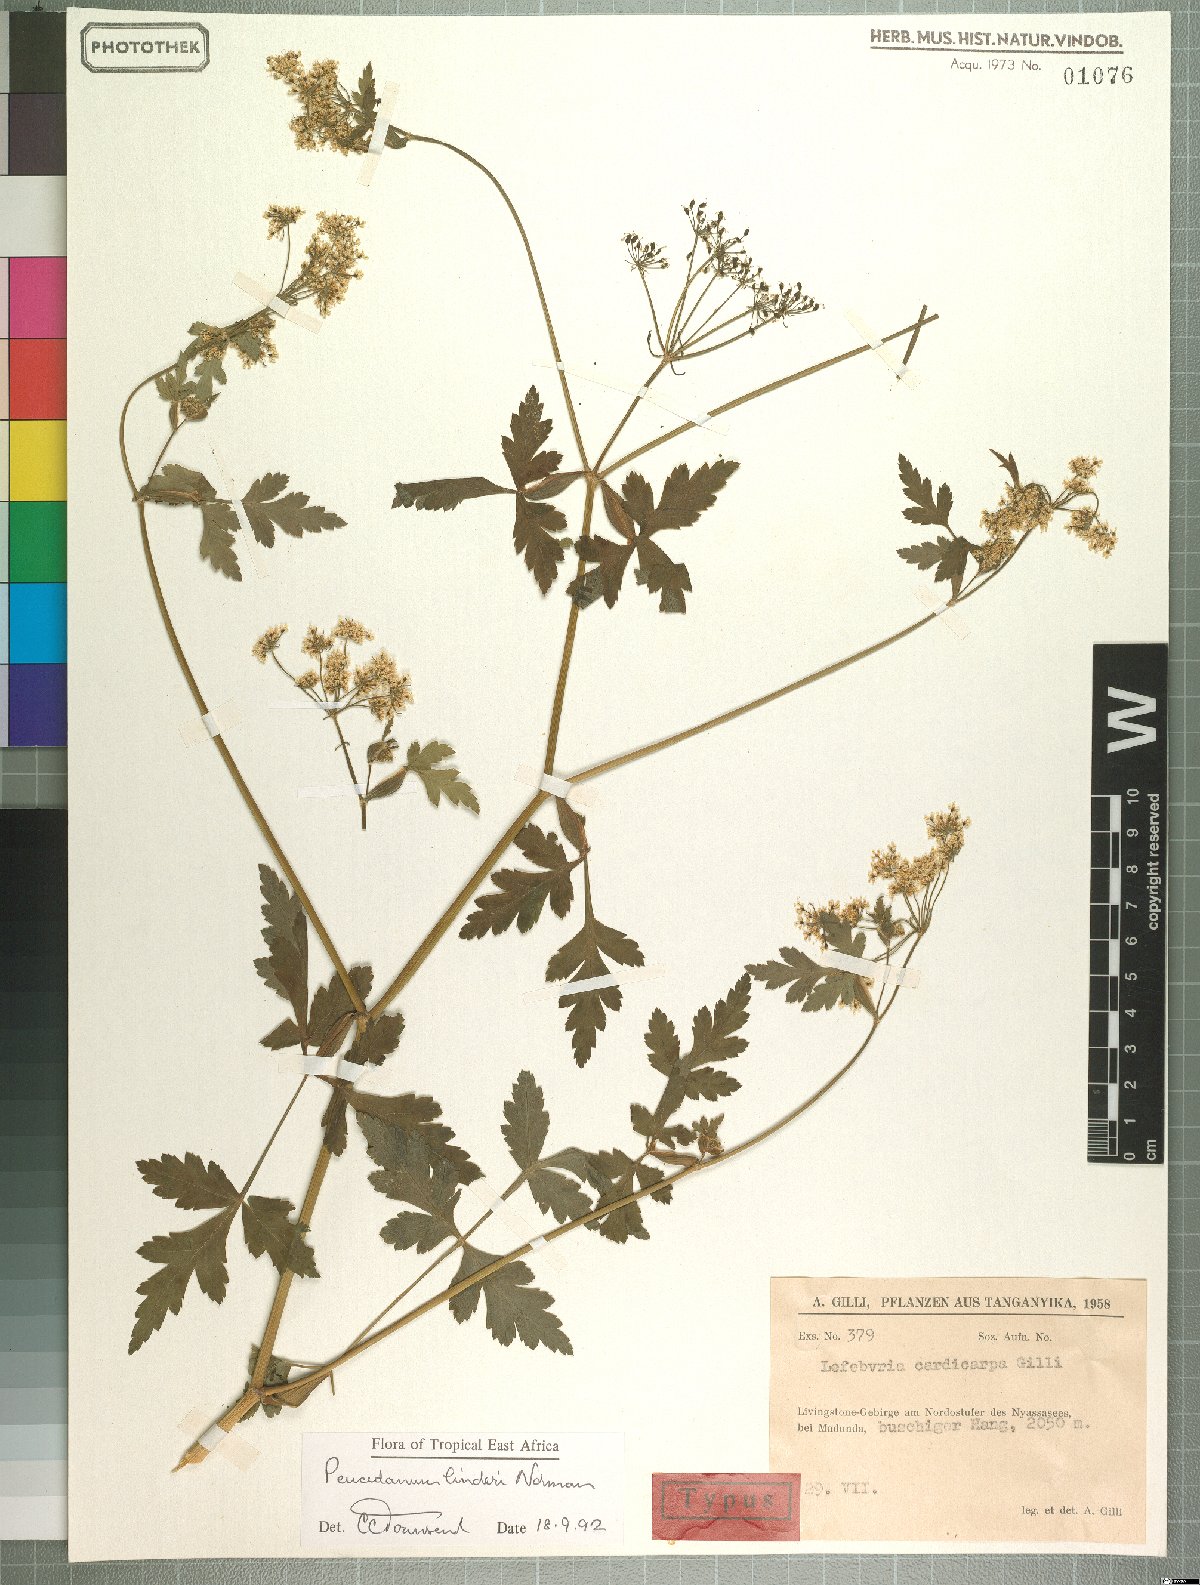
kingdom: Plantae
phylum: Tracheophyta
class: Magnoliopsida
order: Apiales
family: Apiaceae
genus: Afroligusticum
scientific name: Afroligusticum linderi
